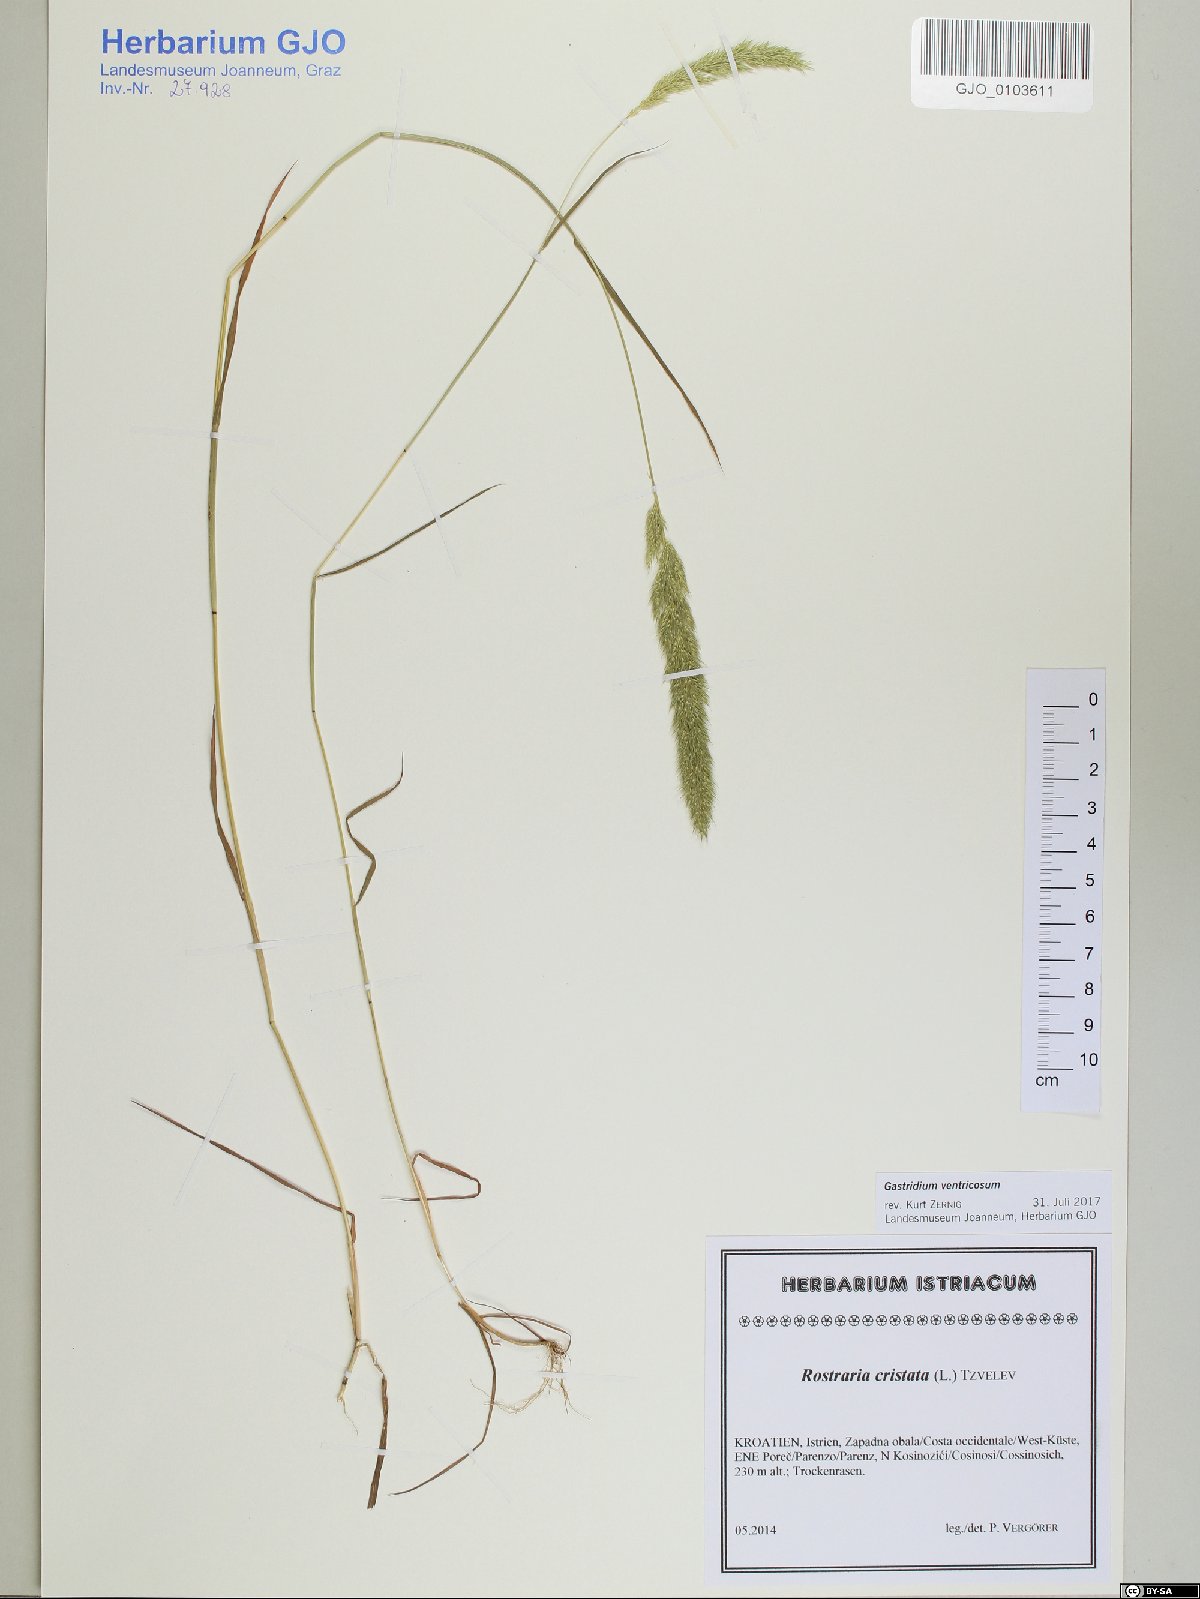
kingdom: Plantae
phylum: Tracheophyta
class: Liliopsida
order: Poales
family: Poaceae
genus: Gastridium
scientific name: Gastridium ventricosum
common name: Nit-grass
